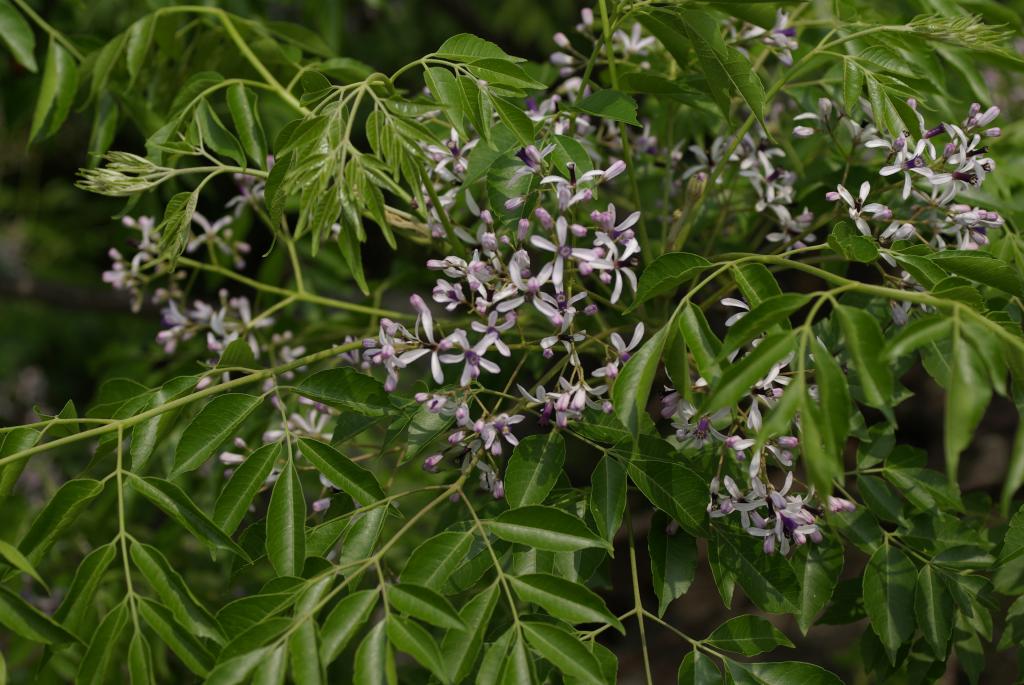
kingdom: Plantae
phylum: Tracheophyta
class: Magnoliopsida
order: Sapindales
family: Meliaceae
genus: Melia
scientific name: Melia azedarach
